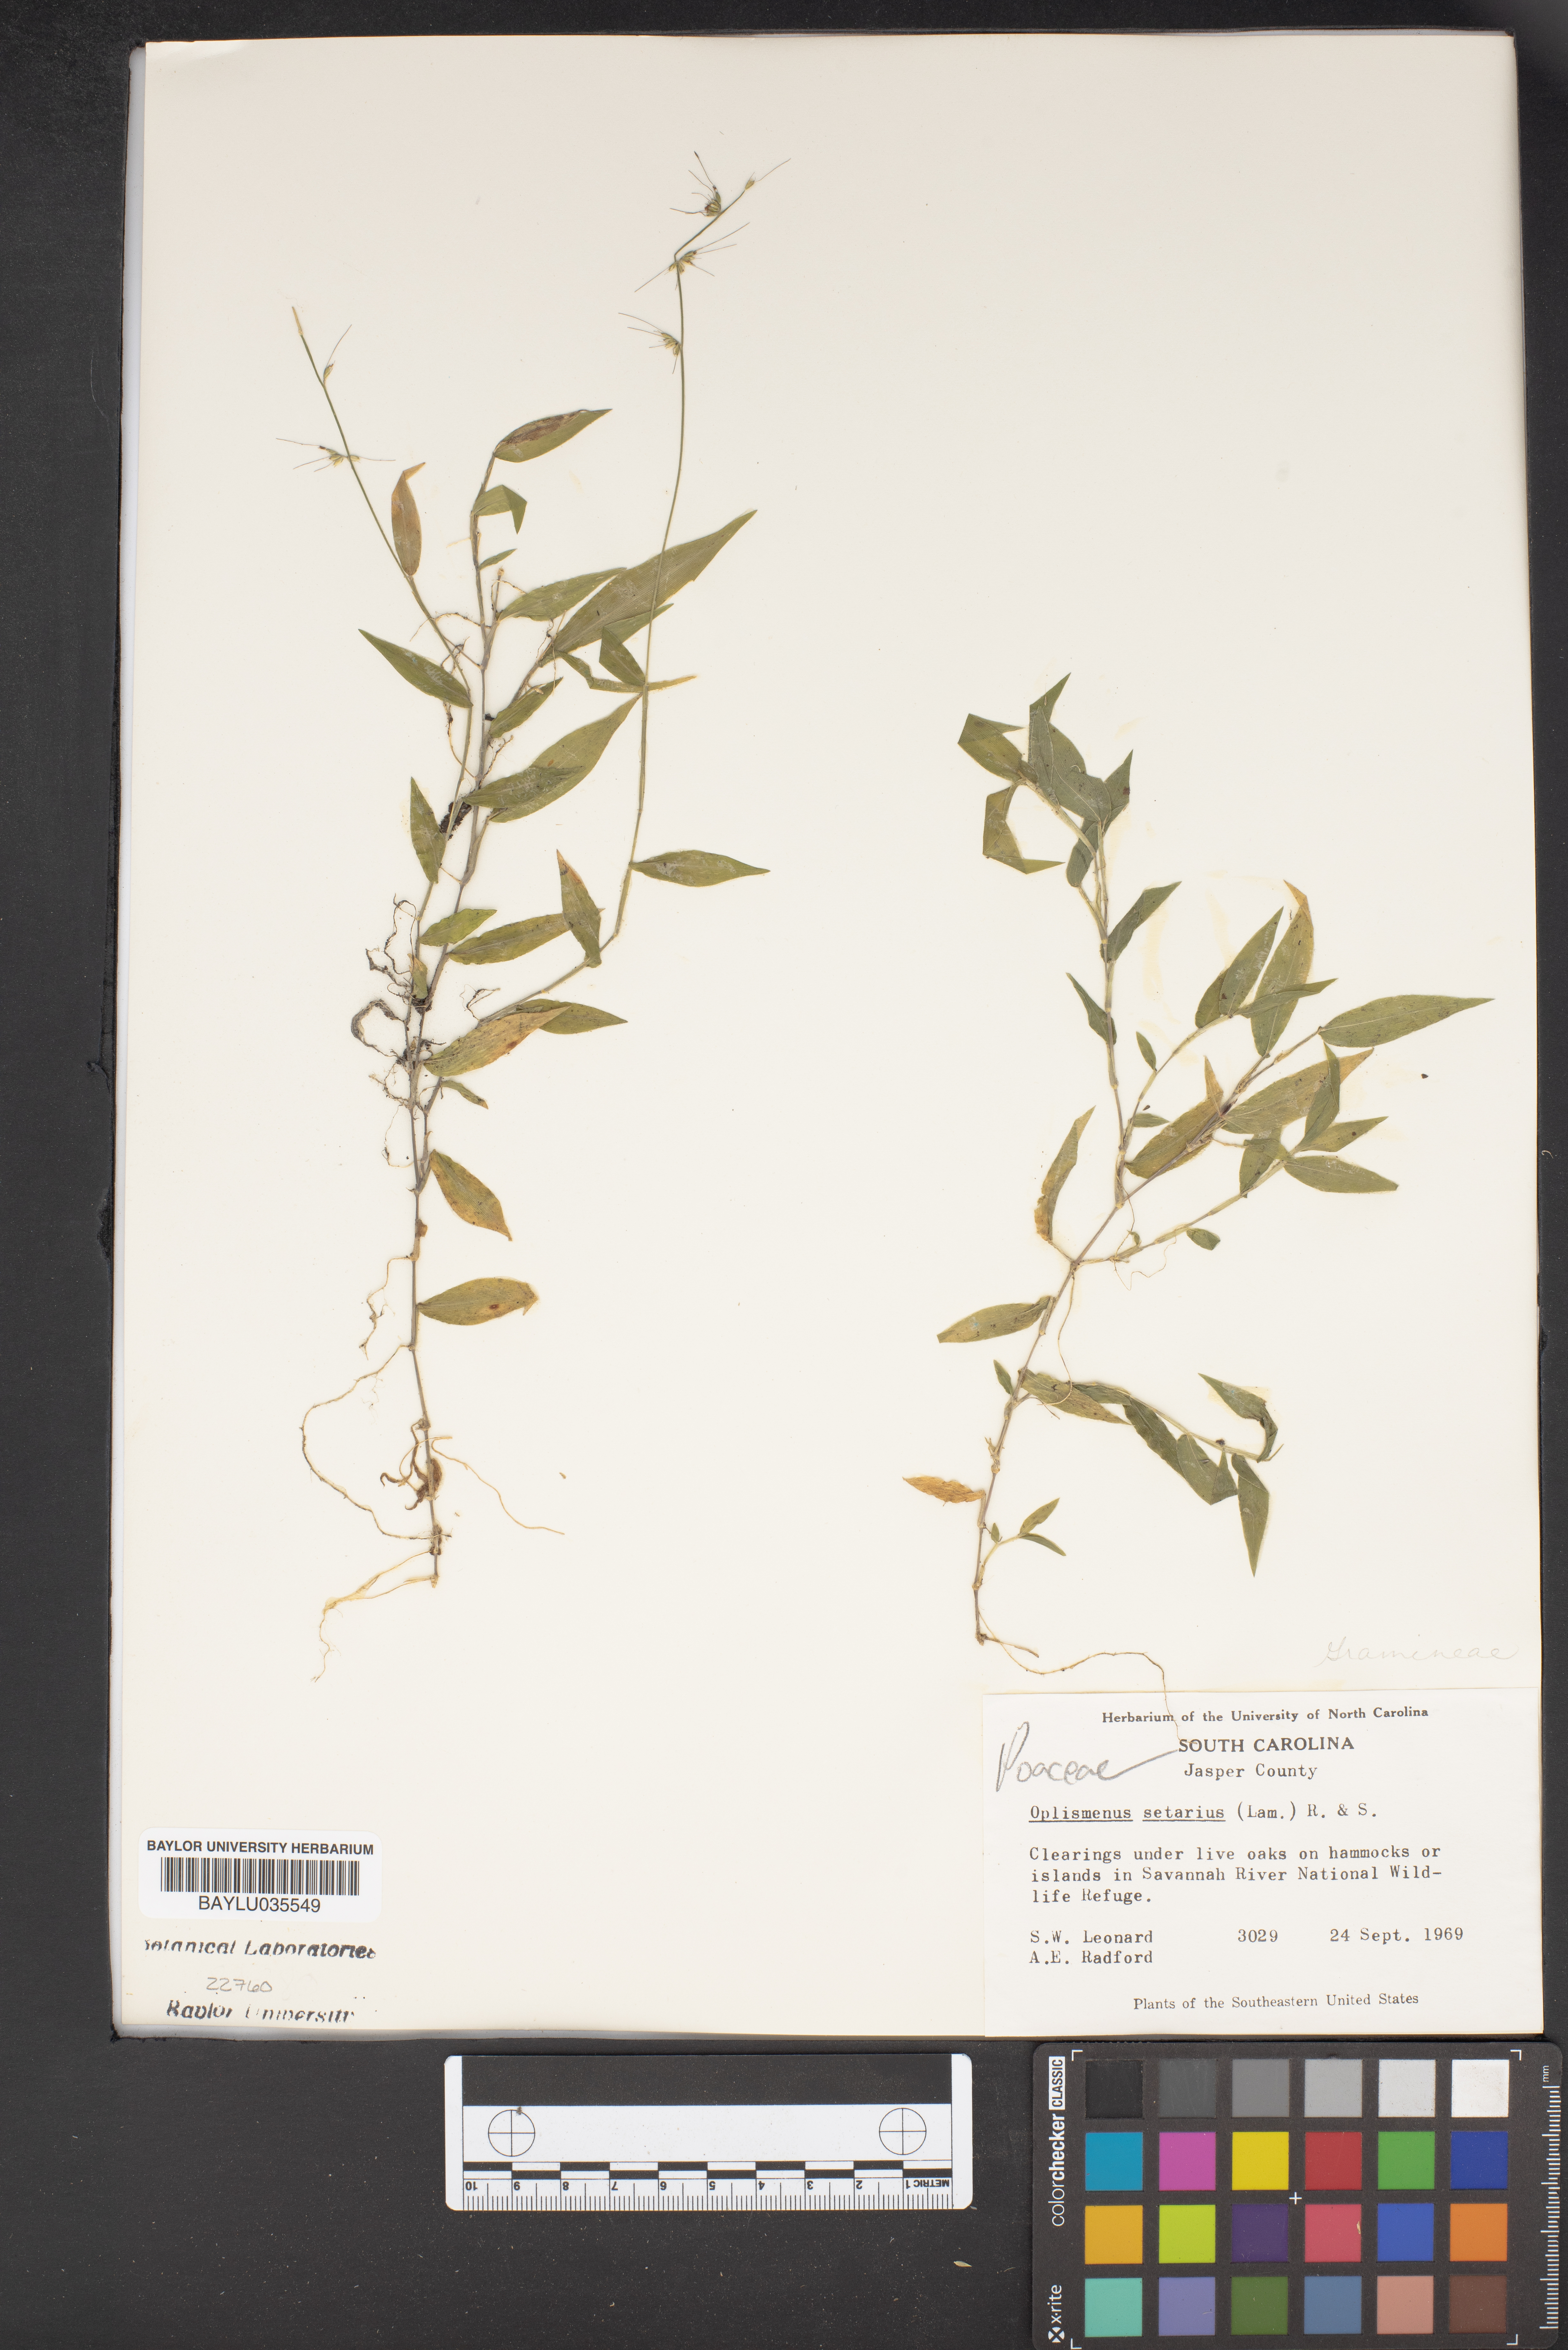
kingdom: Plantae
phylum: Tracheophyta
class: Liliopsida
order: Poales
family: Poaceae
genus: Oplismenus
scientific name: Oplismenus compositus
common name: Running mountain grass
